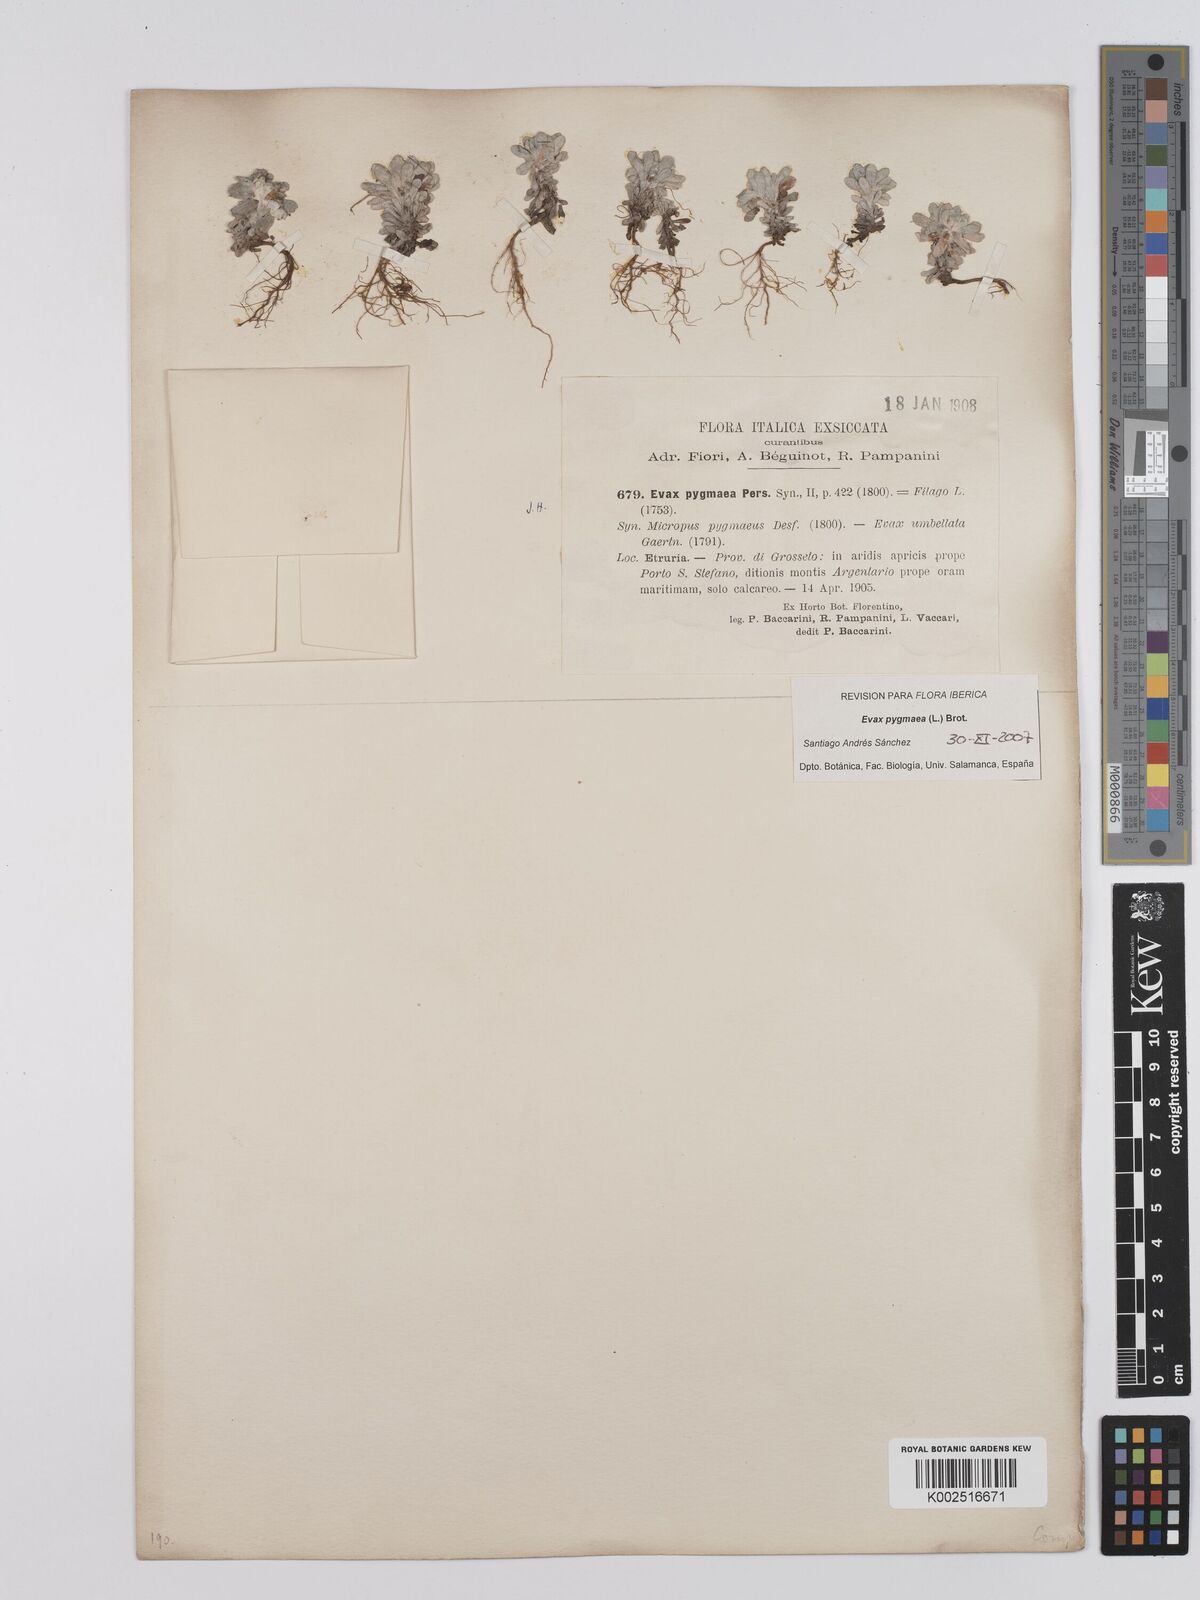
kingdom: Plantae
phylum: Tracheophyta
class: Magnoliopsida
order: Asterales
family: Asteraceae
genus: Filago
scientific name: Filago pygmaea
